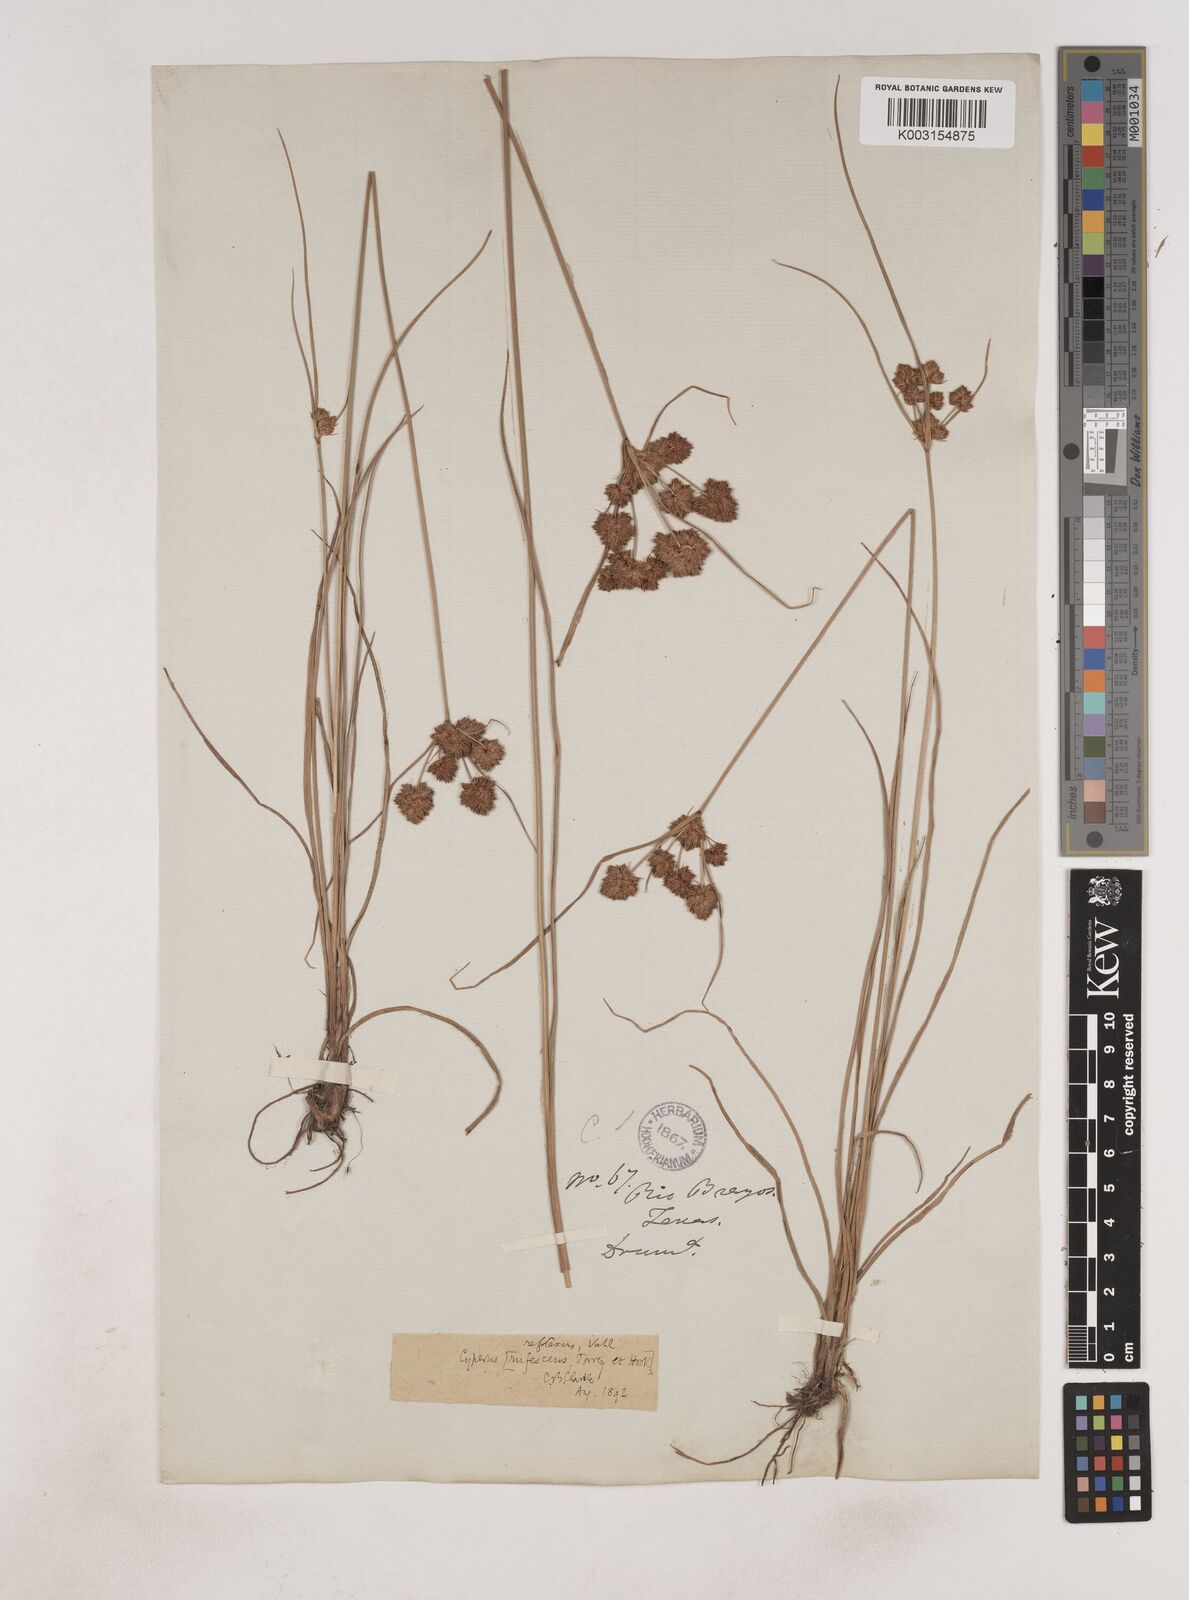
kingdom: Plantae
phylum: Tracheophyta
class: Liliopsida
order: Poales
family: Cyperaceae
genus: Cyperus
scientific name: Cyperus reflexus
